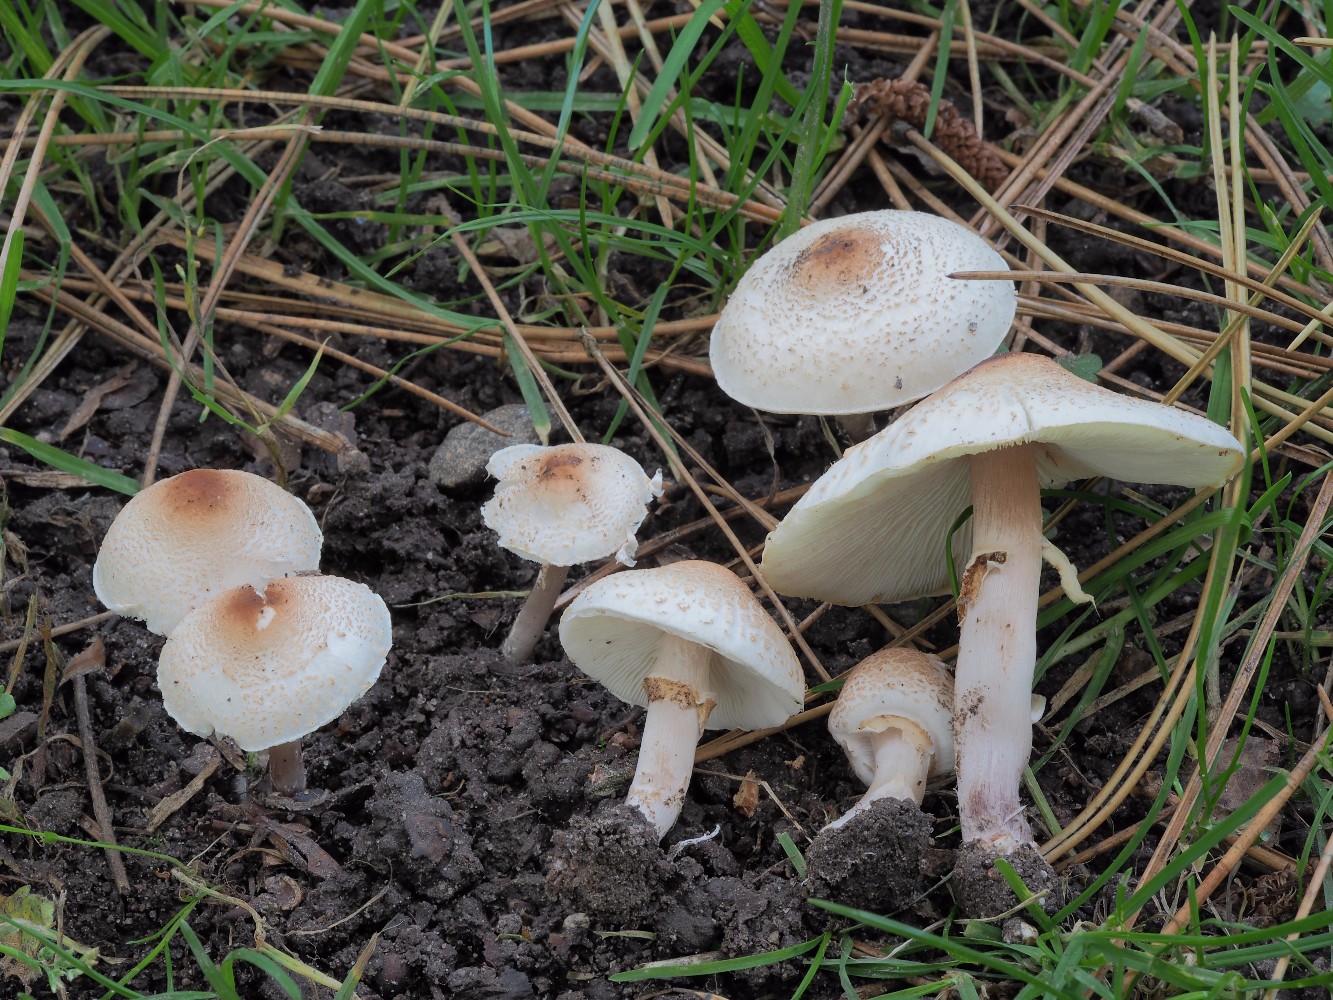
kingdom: Fungi
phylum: Basidiomycota
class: Agaricomycetes
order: Agaricales
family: Agaricaceae
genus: Lepiota
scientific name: Lepiota cristata
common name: stinkende parasolhat
